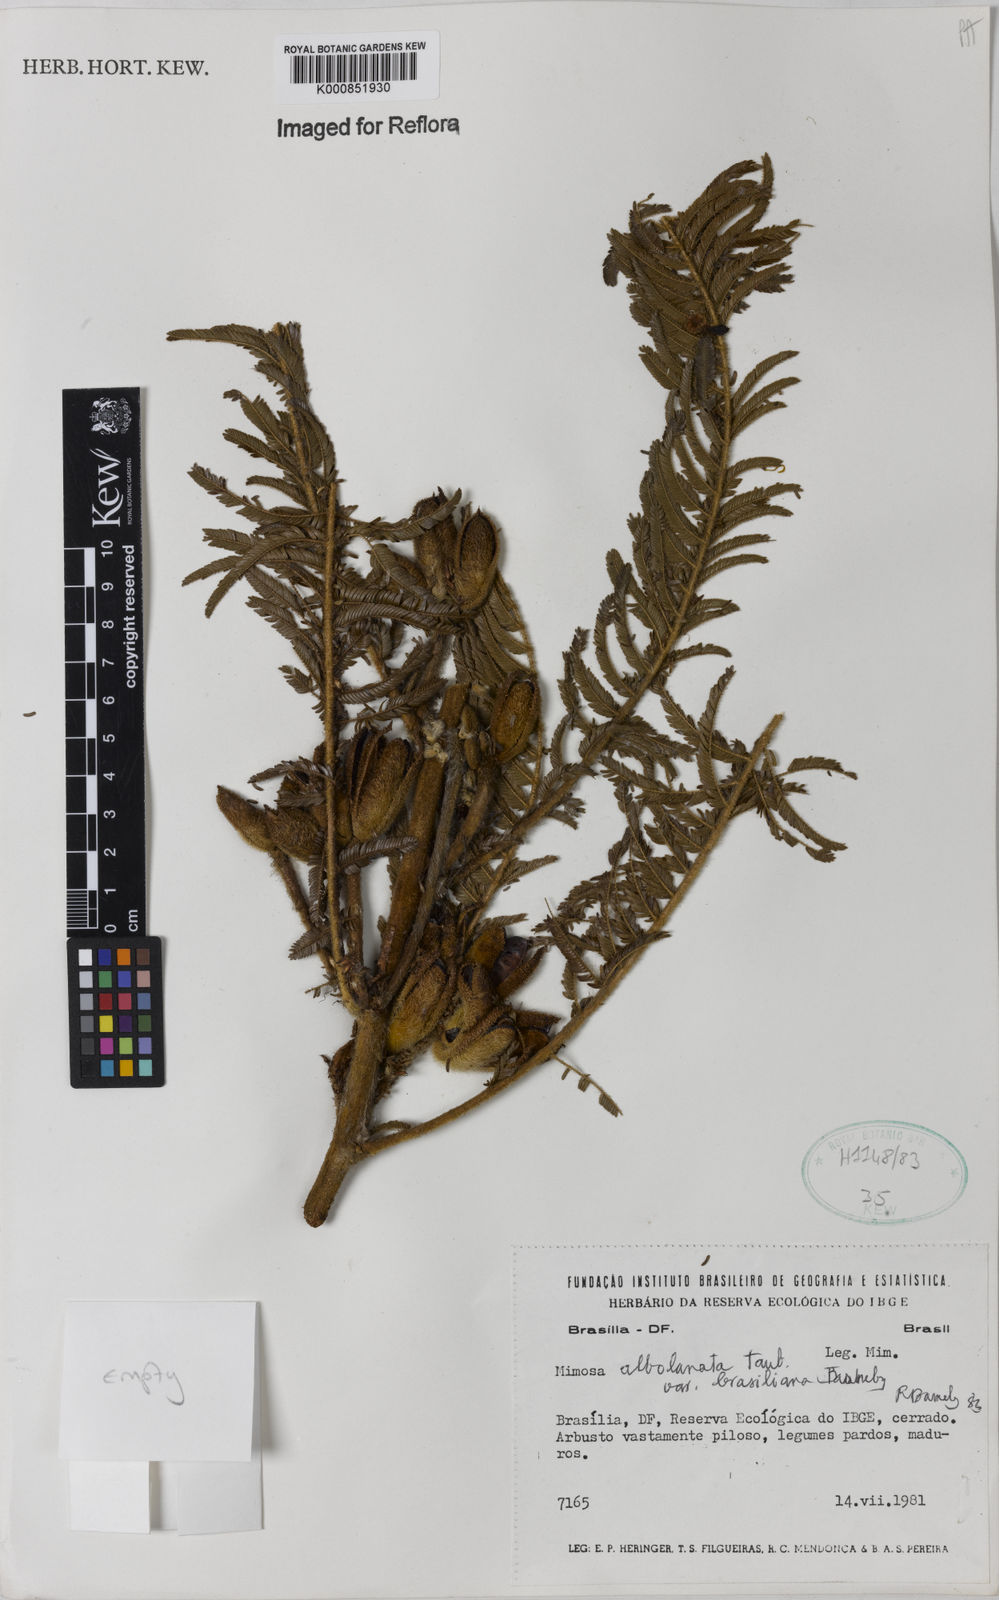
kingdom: Plantae
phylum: Tracheophyta
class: Magnoliopsida
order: Fabales
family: Fabaceae
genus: Mimosa
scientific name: Mimosa albolanata
